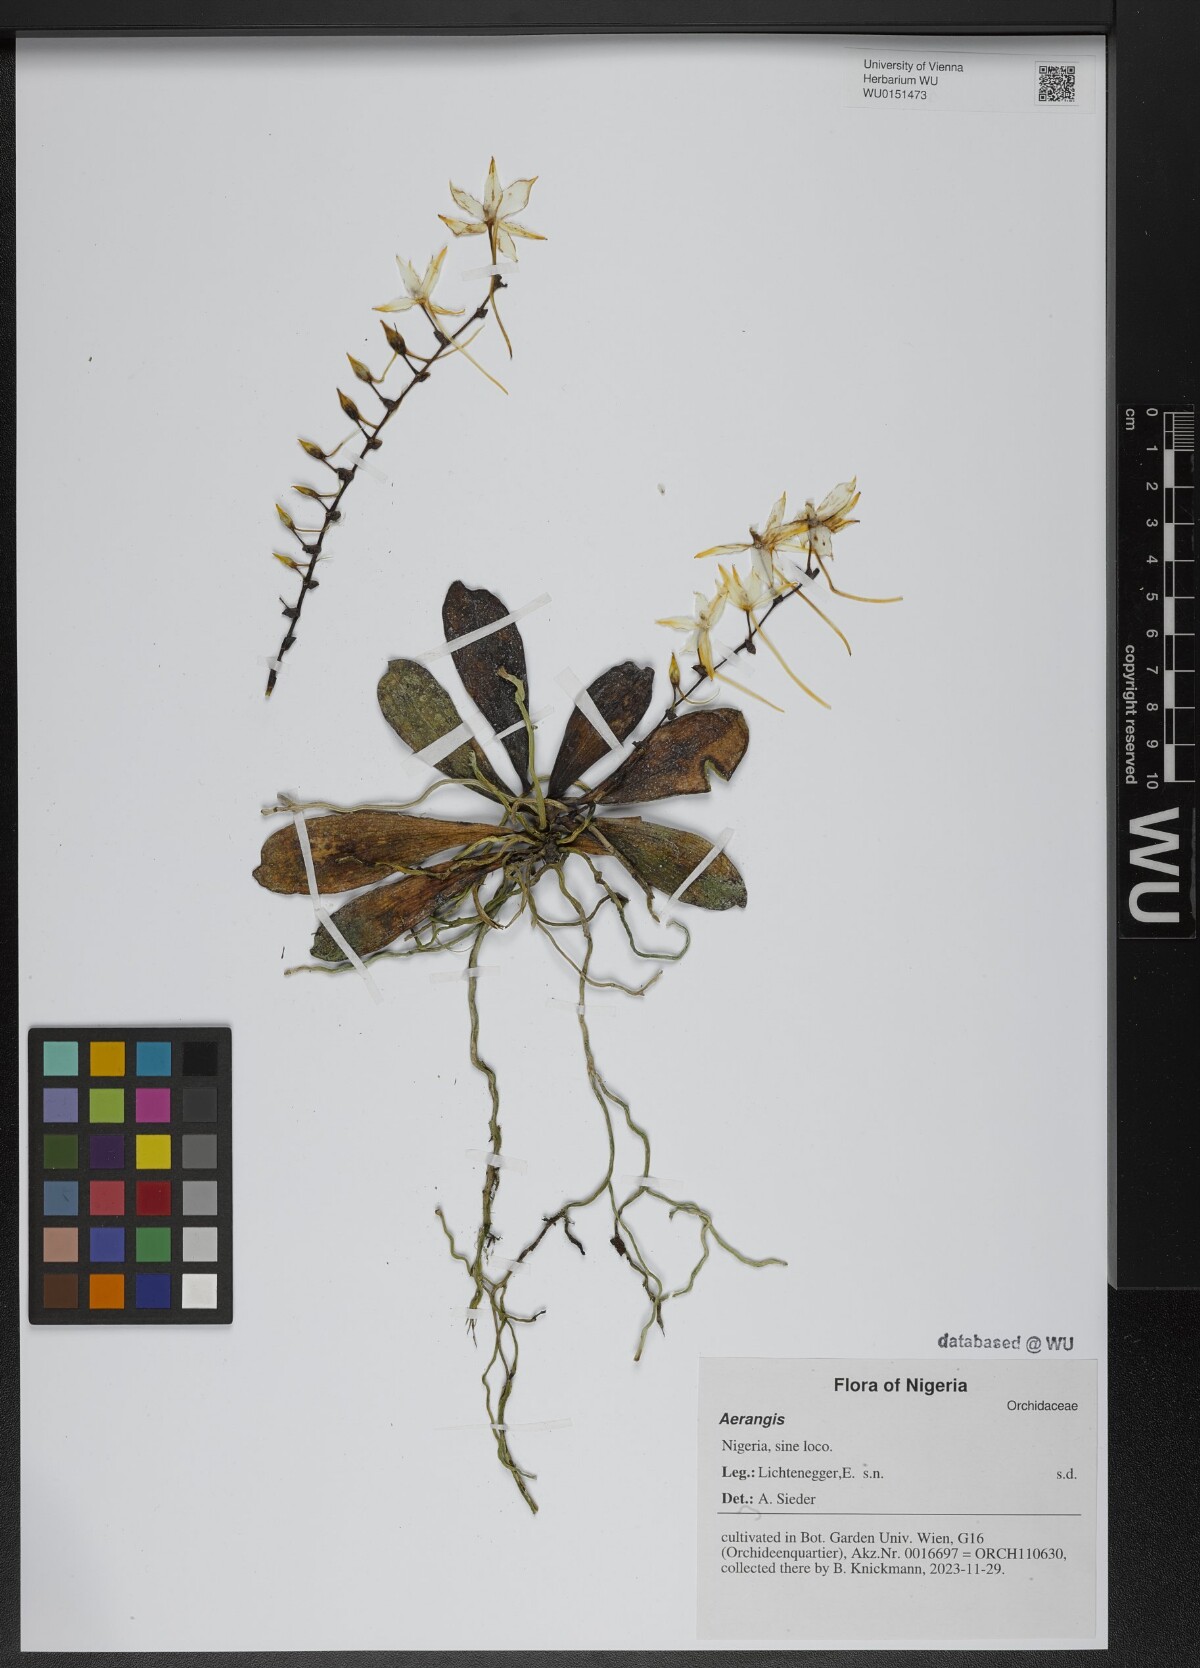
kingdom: Plantae
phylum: Tracheophyta
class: Liliopsida
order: Asparagales
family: Orchidaceae
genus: Aerangis
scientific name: Aerangis
